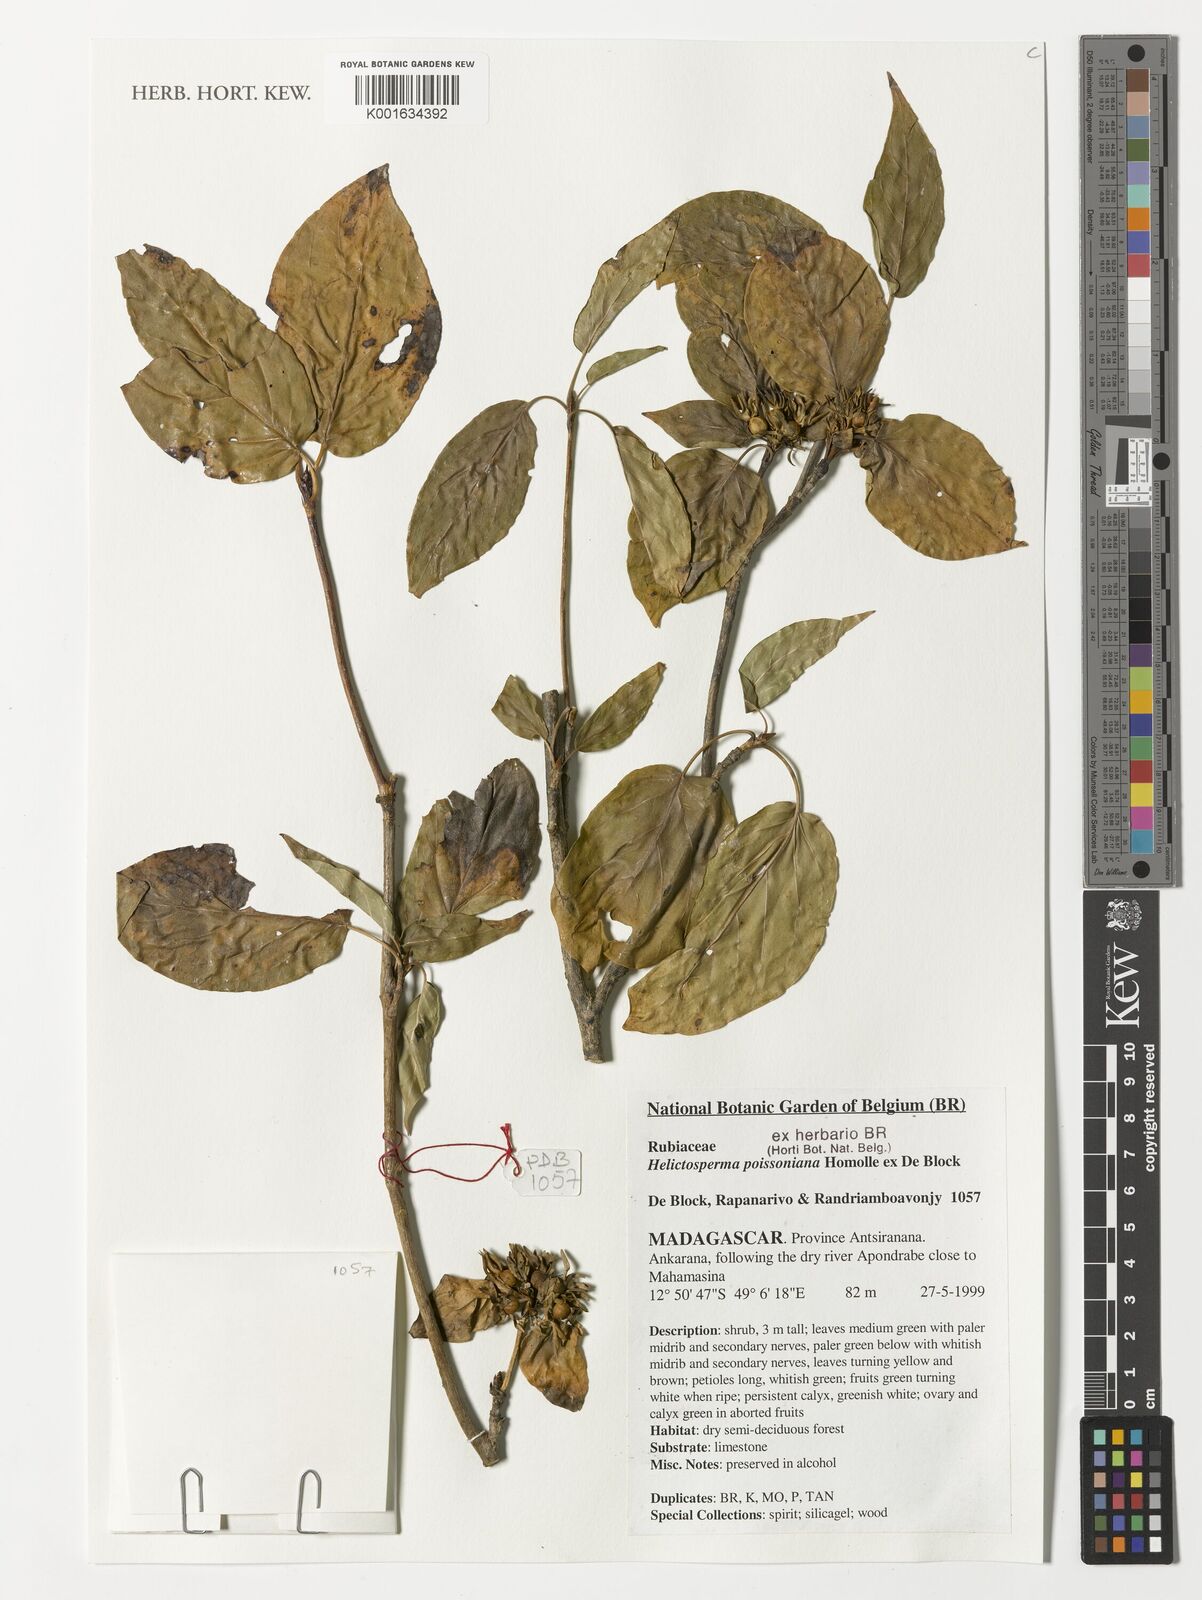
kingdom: Plantae
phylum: Tracheophyta
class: Magnoliopsida
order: Gentianales
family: Rubiaceae
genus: Helictosperma
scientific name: Helictosperma poissonianum
